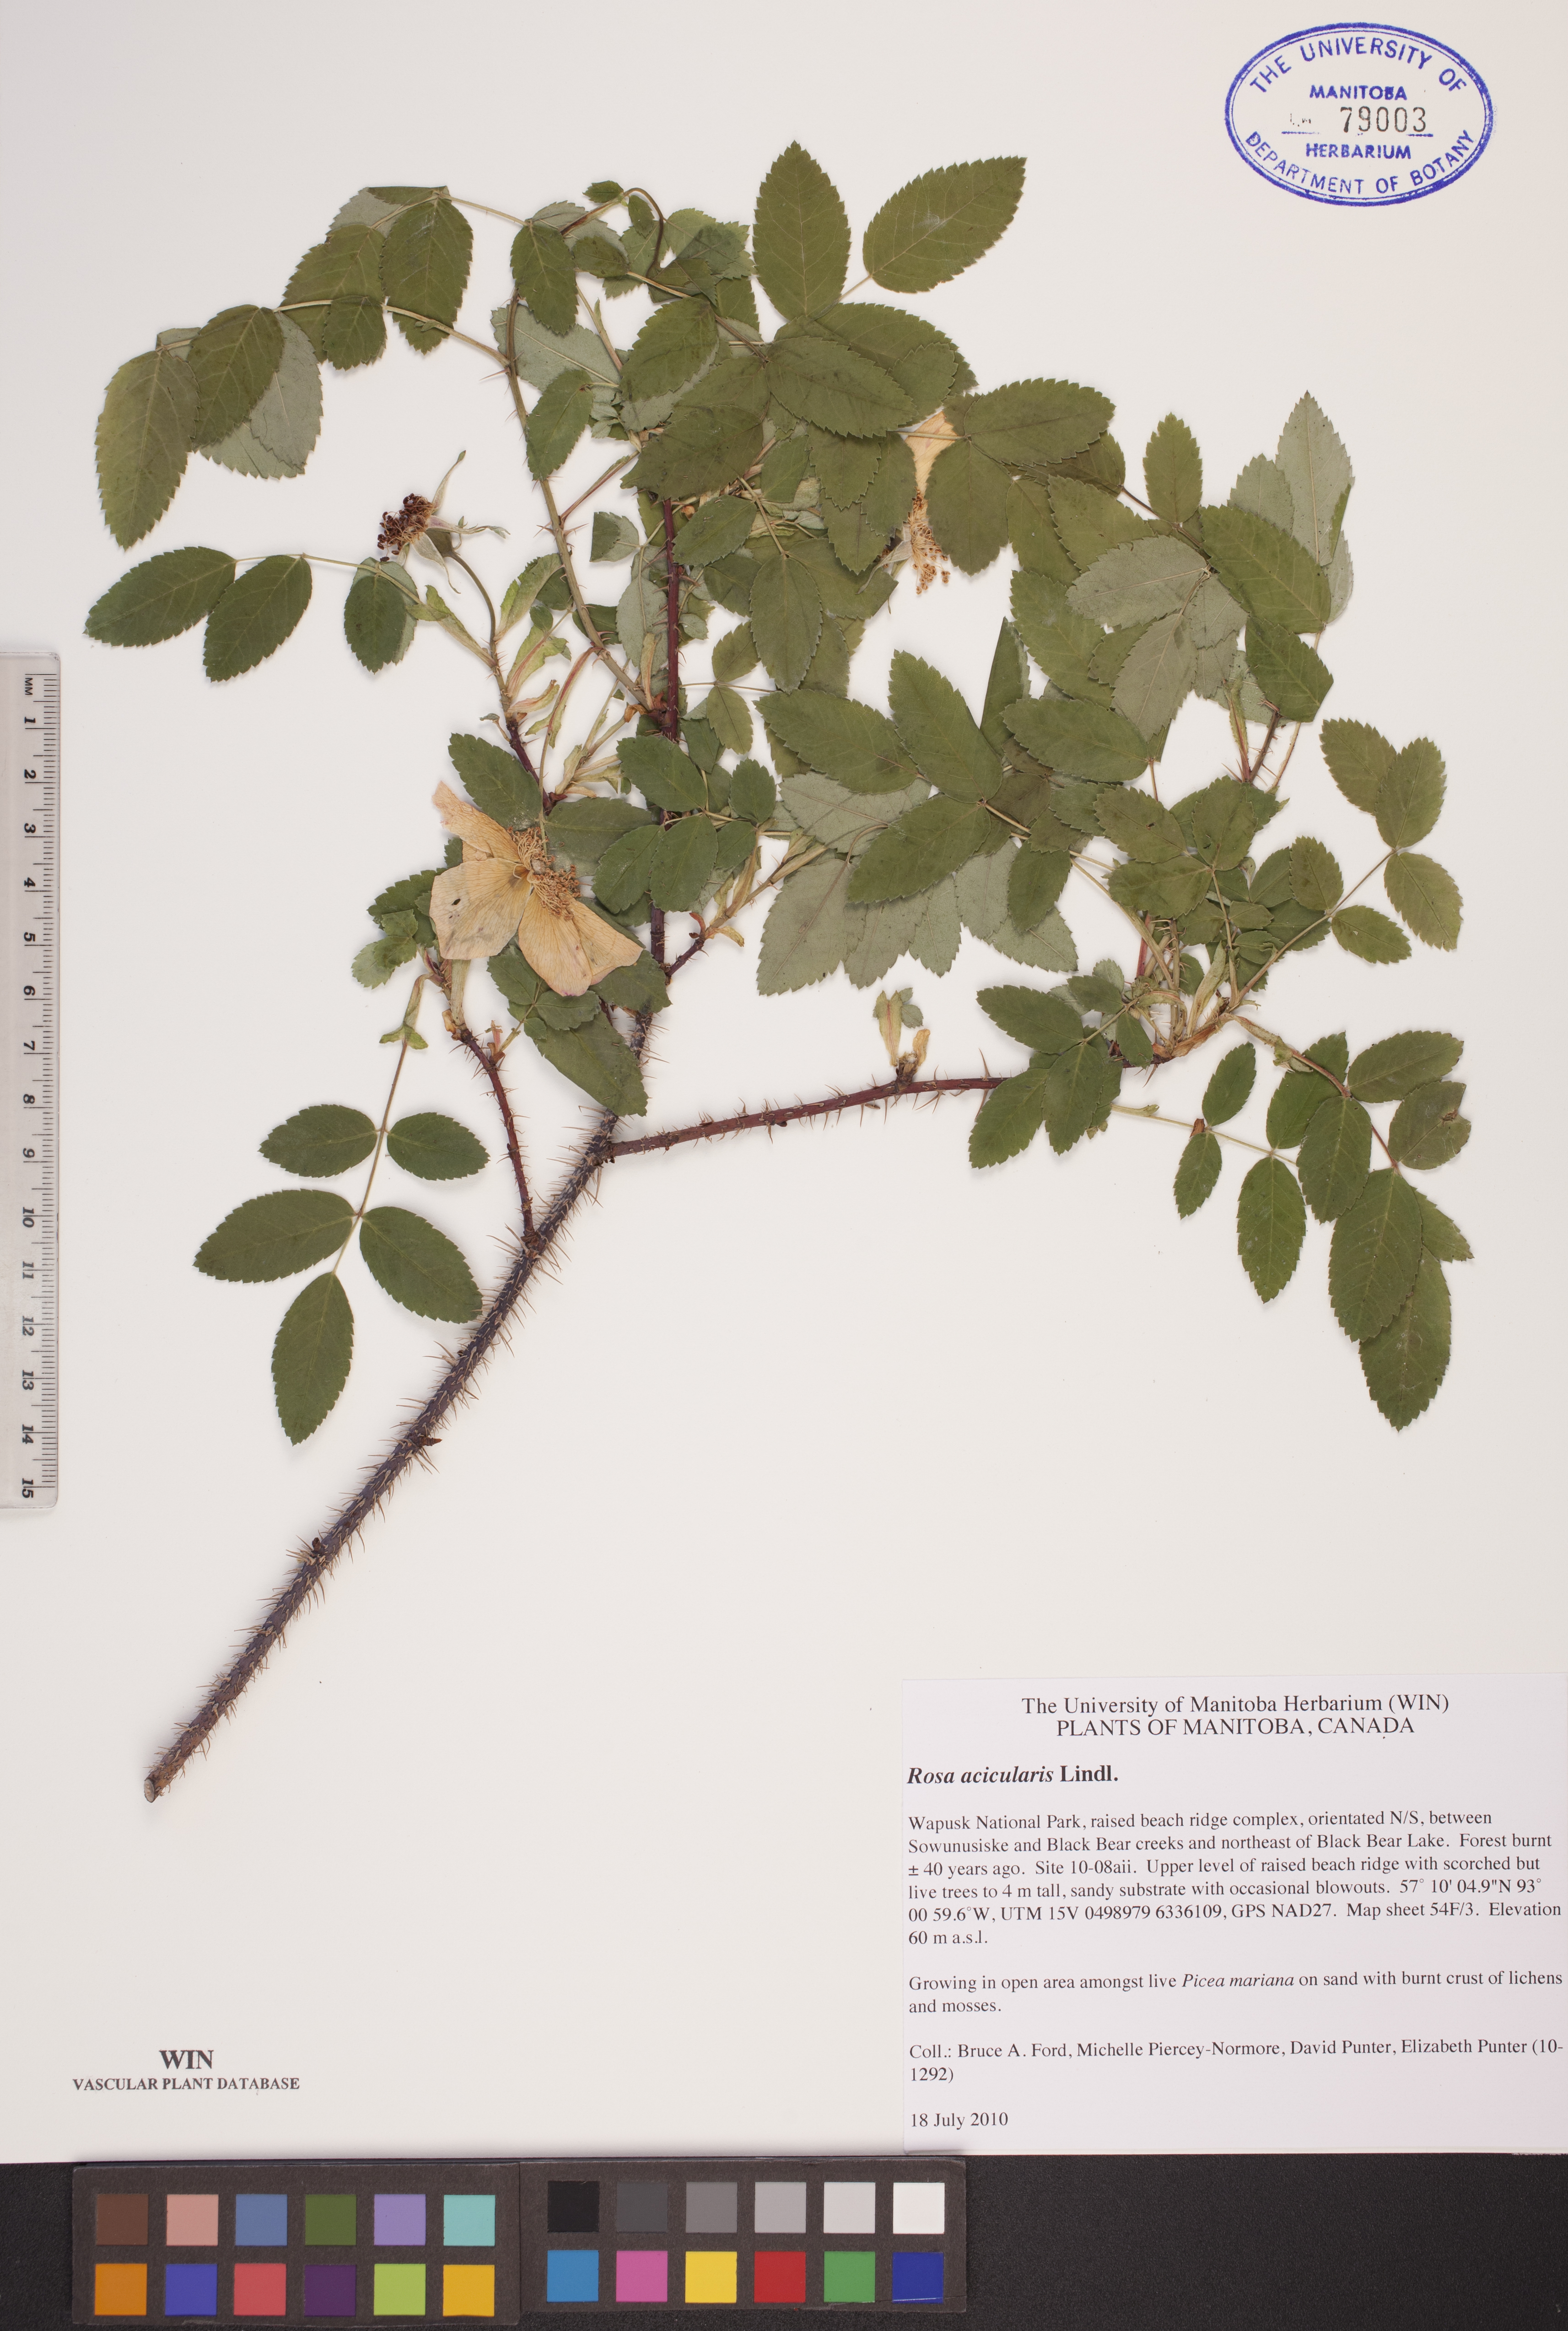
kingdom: Plantae
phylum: Tracheophyta
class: Magnoliopsida
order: Rosales
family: Rosaceae
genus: Rosa
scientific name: Rosa acicularis
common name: Prickly rose
